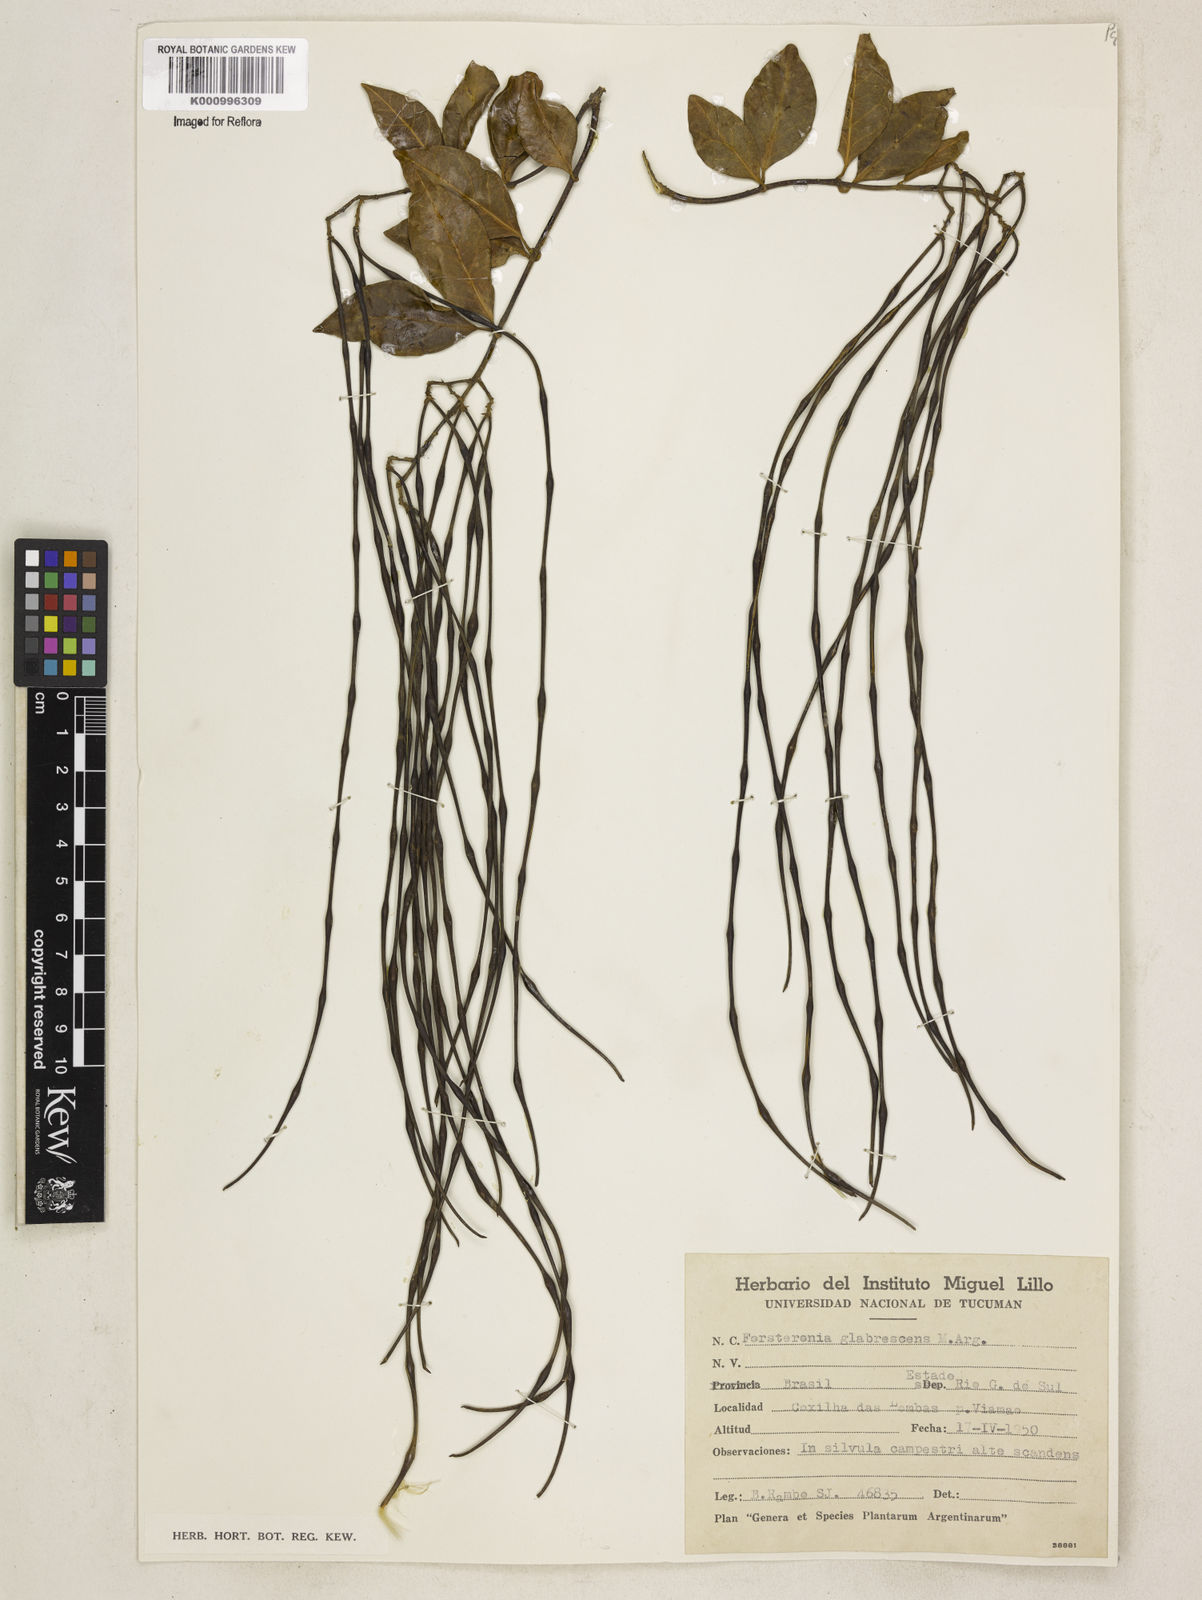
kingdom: Plantae
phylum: Tracheophyta
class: Magnoliopsida
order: Gentianales
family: Apocynaceae
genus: Forsteronia
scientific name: Forsteronia
